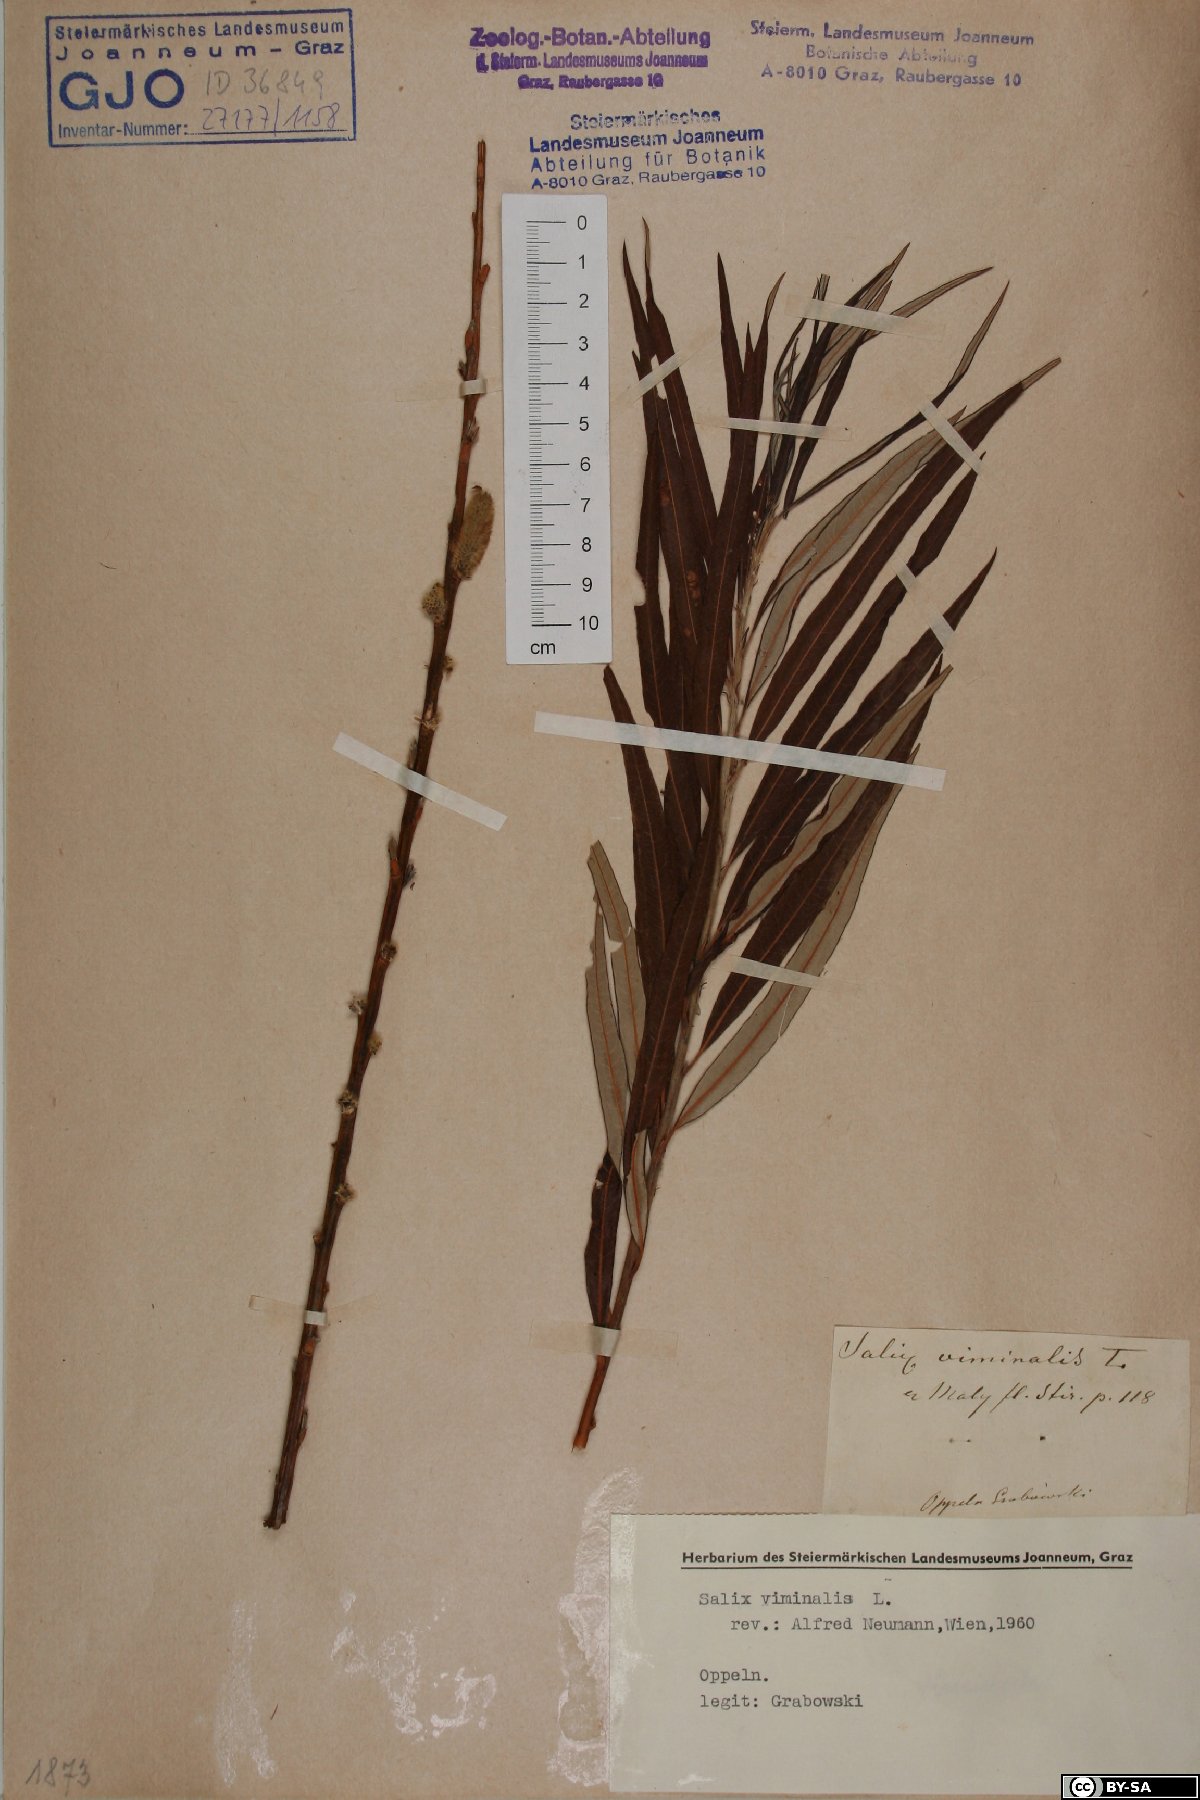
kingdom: Plantae
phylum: Tracheophyta
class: Magnoliopsida
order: Malpighiales
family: Salicaceae
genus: Salix
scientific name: Salix viminalis
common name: Osier
